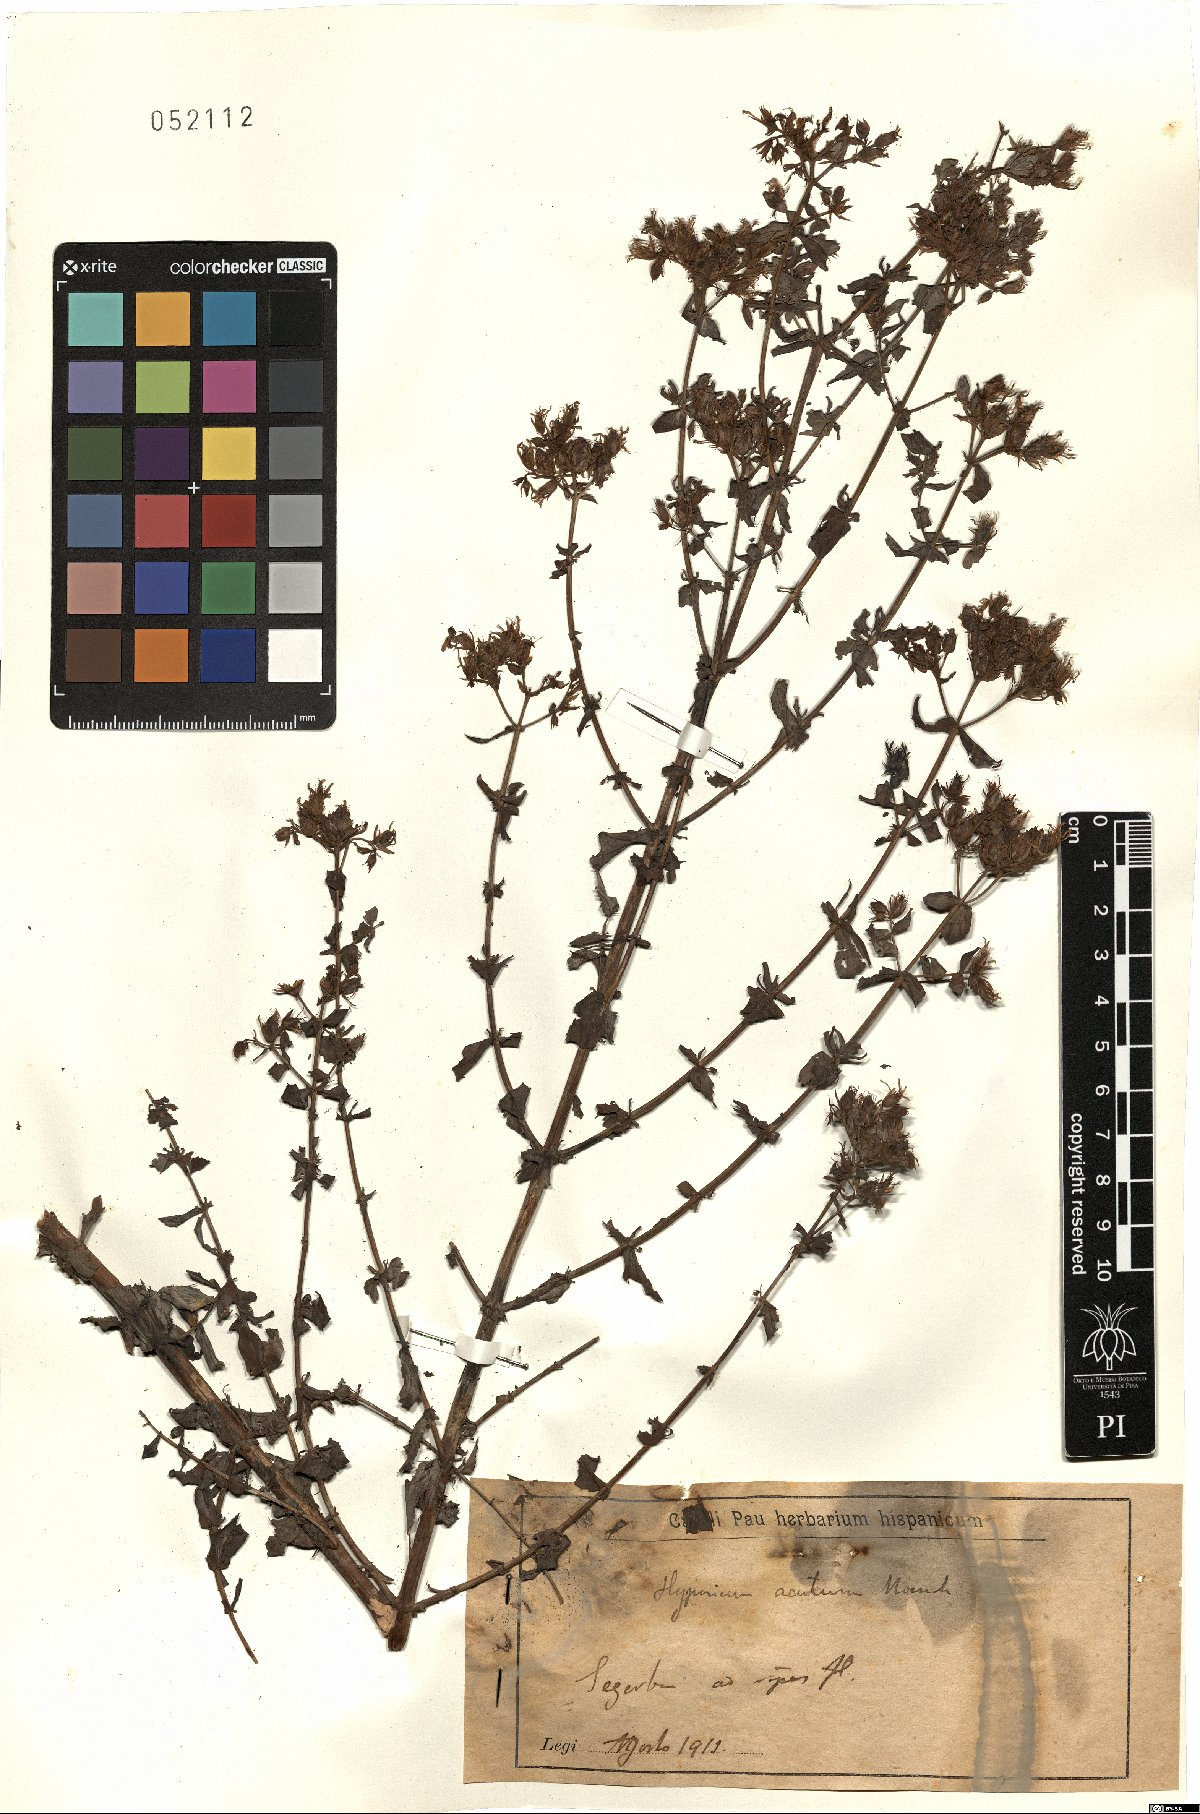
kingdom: Plantae
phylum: Tracheophyta
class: Magnoliopsida
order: Malpighiales
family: Hypericaceae
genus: Hypericum
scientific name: Hypericum tetrapterum
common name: Square-stalked st. john's-wort
